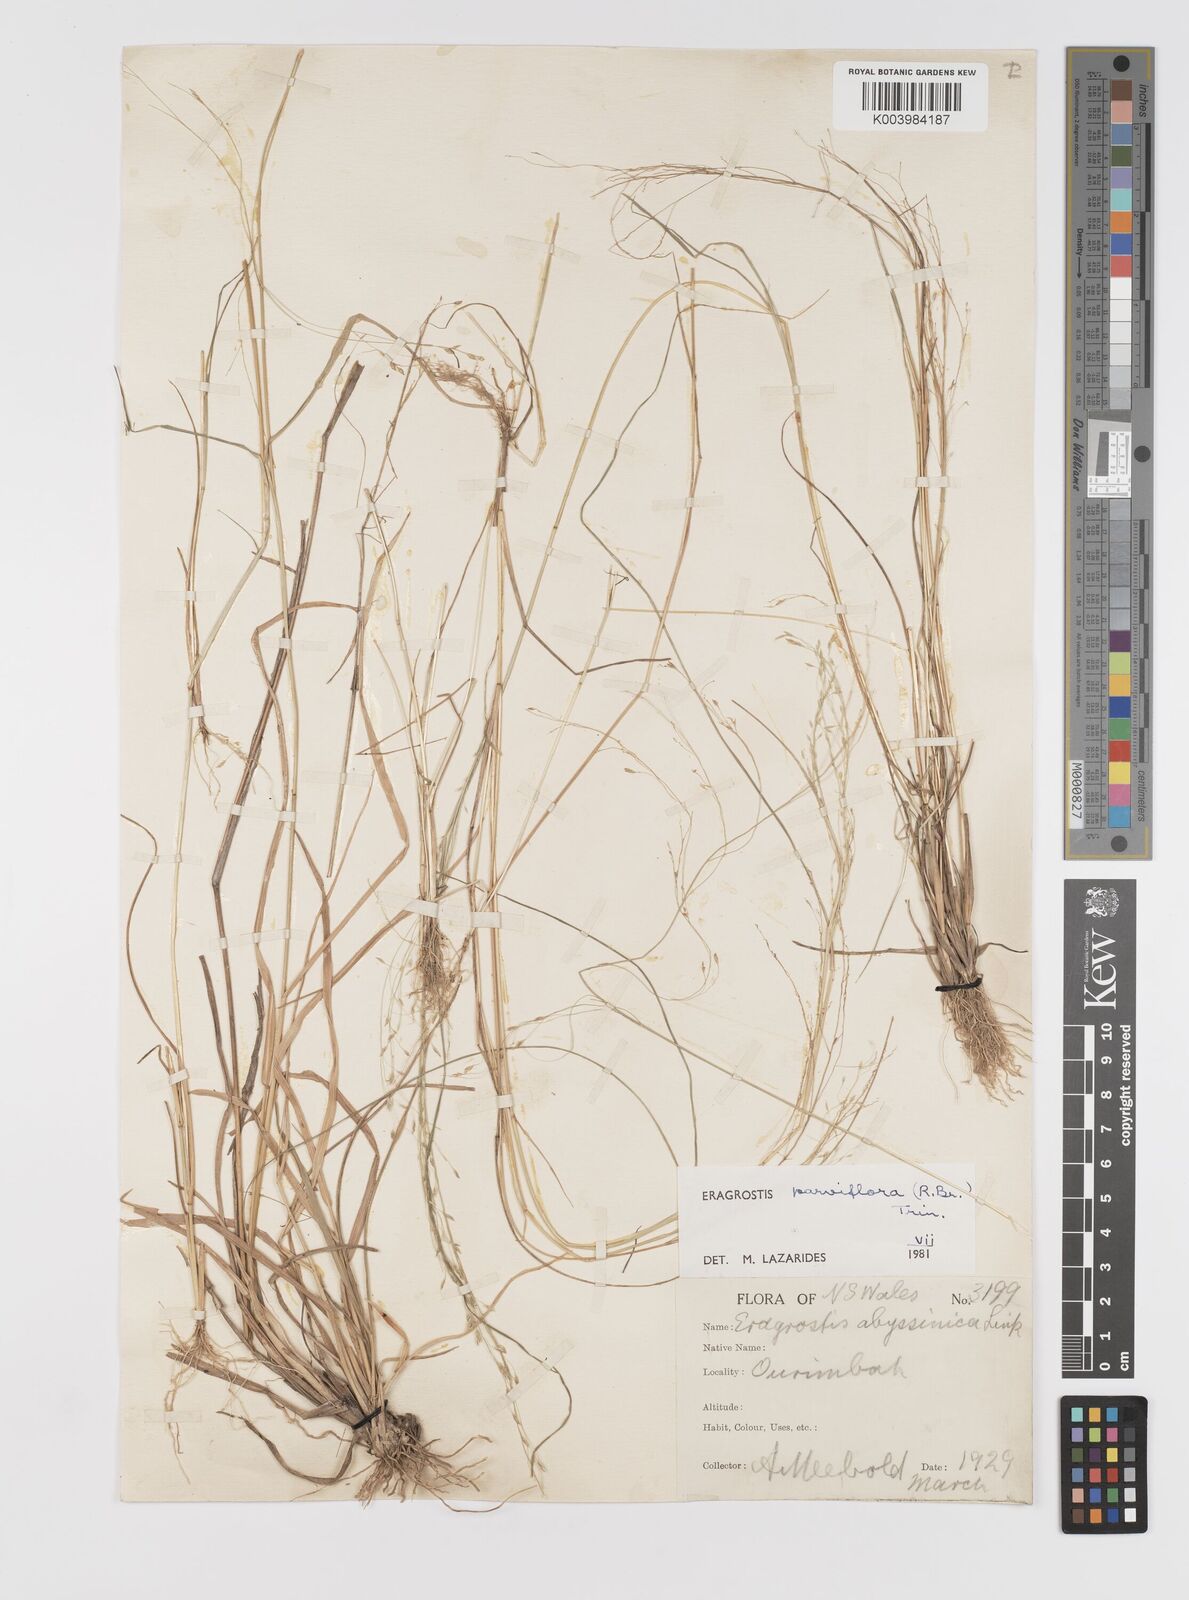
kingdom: Plantae
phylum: Tracheophyta
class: Liliopsida
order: Poales
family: Poaceae
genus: Eragrostis
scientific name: Eragrostis parviflora
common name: Weeping love-grass
